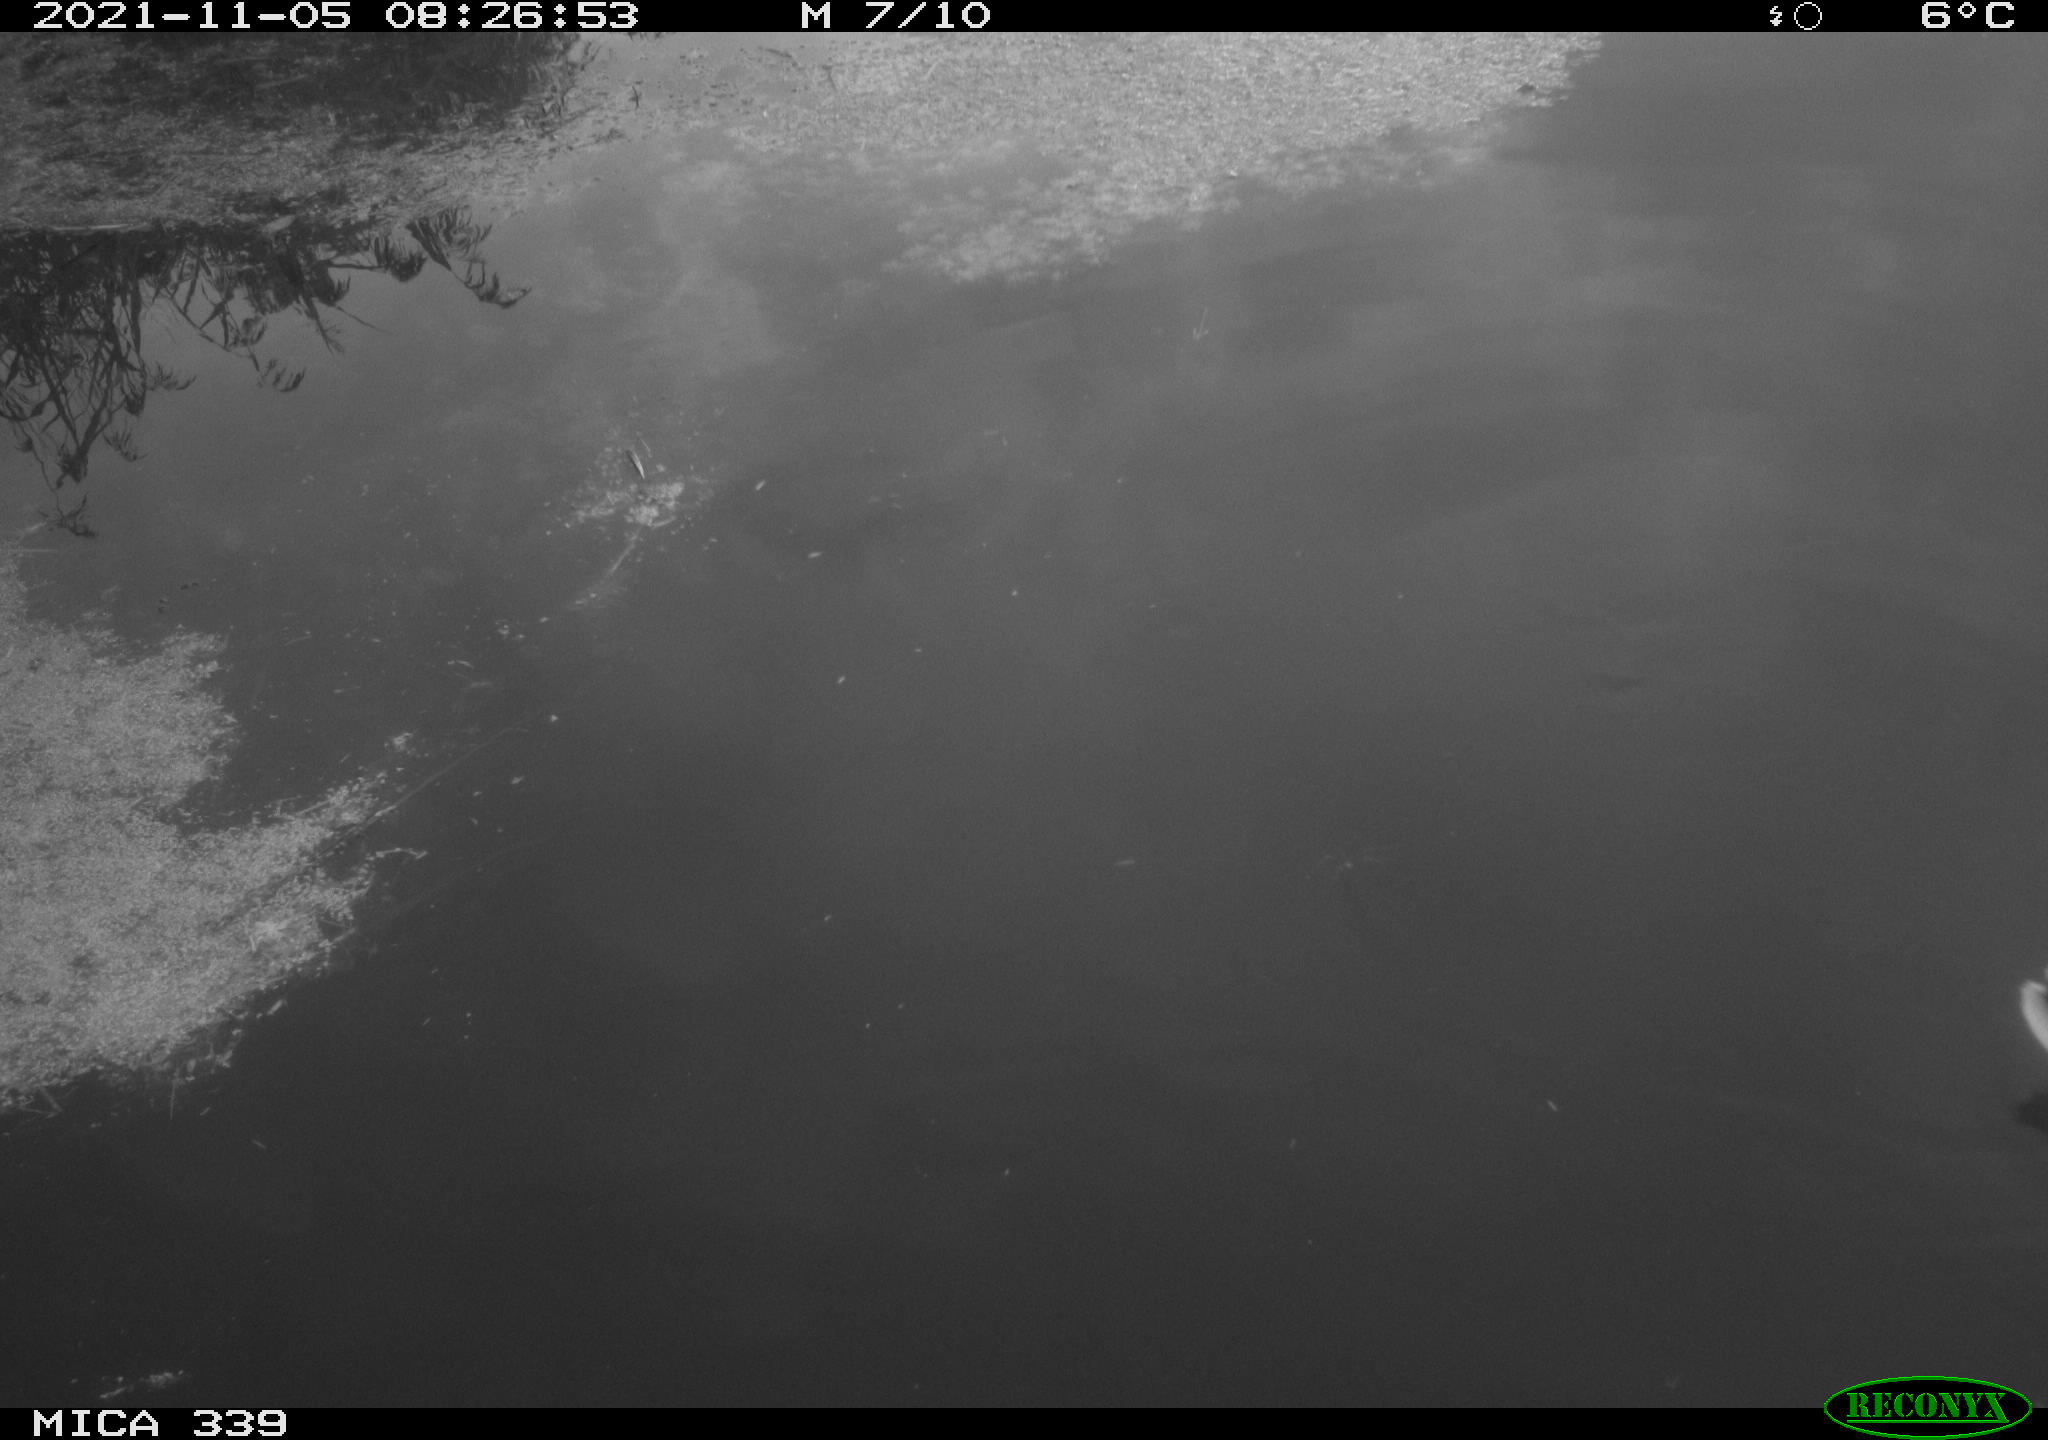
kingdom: Animalia
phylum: Chordata
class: Aves
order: Anseriformes
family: Anatidae
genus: Anas
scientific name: Anas platyrhynchos
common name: Mallard
